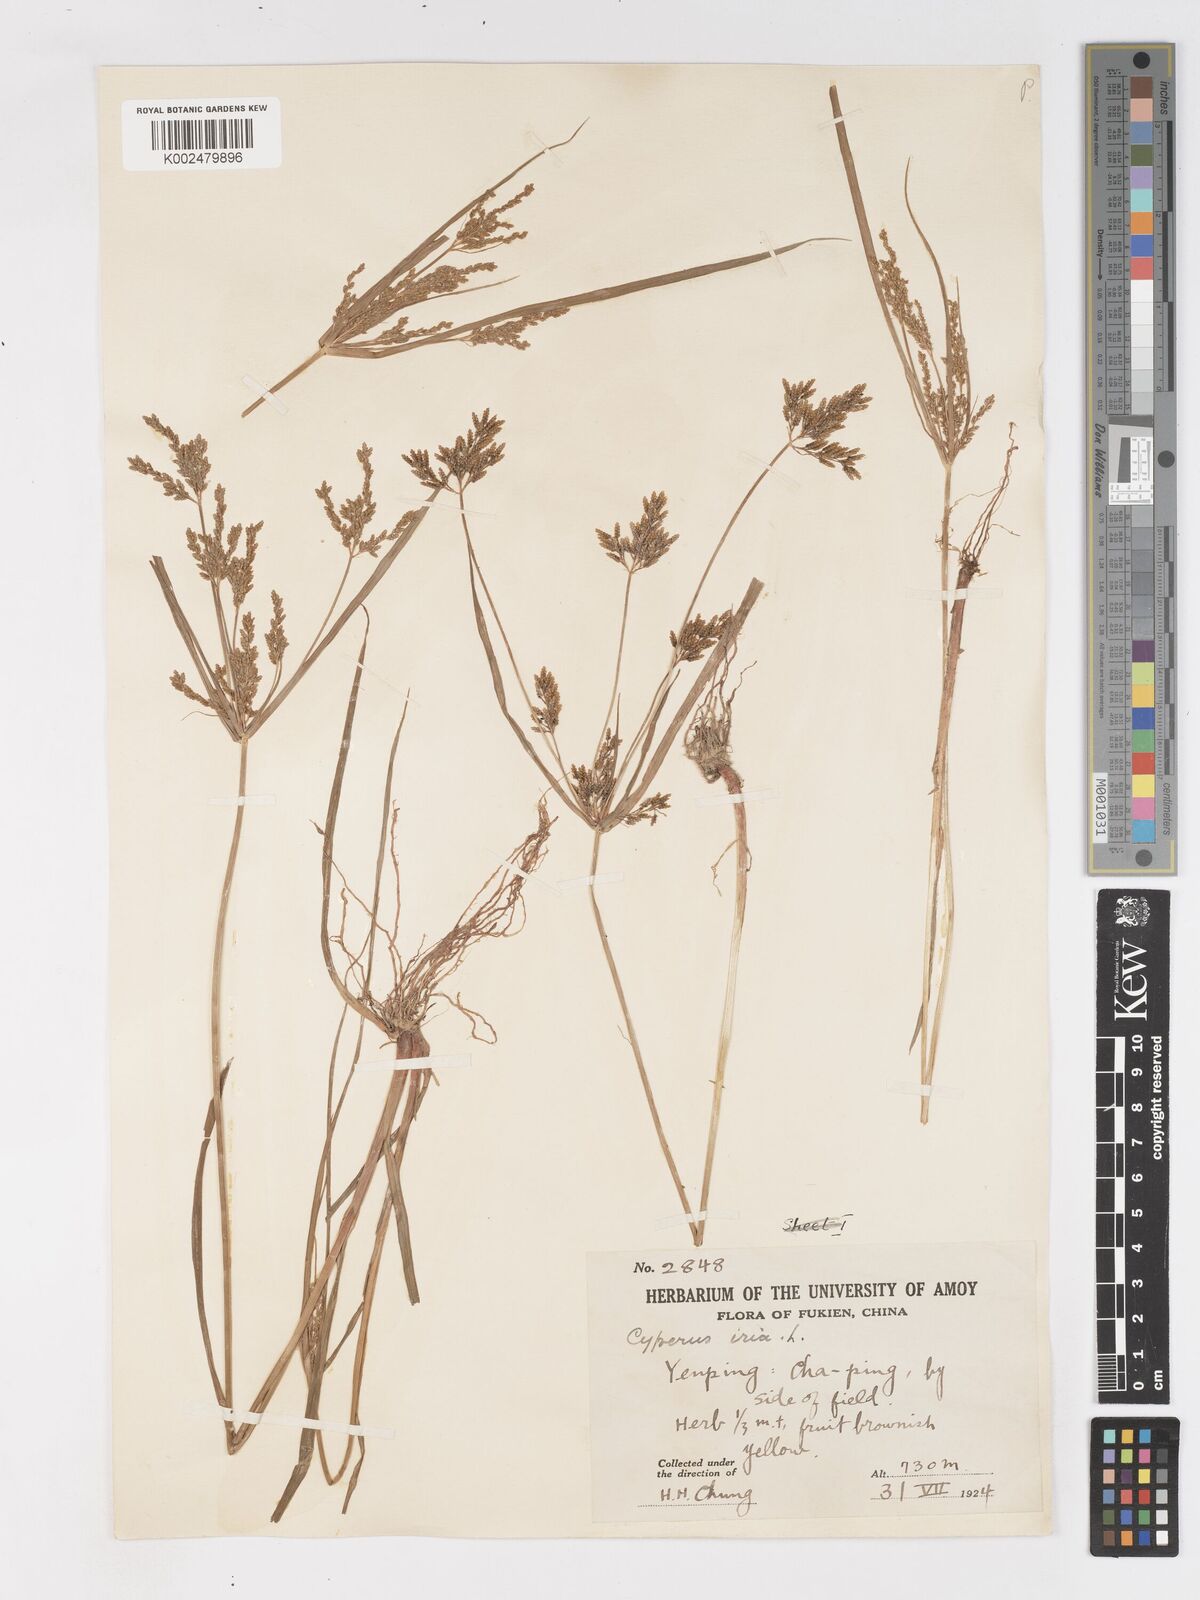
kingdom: Plantae
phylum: Tracheophyta
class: Liliopsida
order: Poales
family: Cyperaceae
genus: Cyperus
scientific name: Cyperus iria
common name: Ricefield flatsedge
